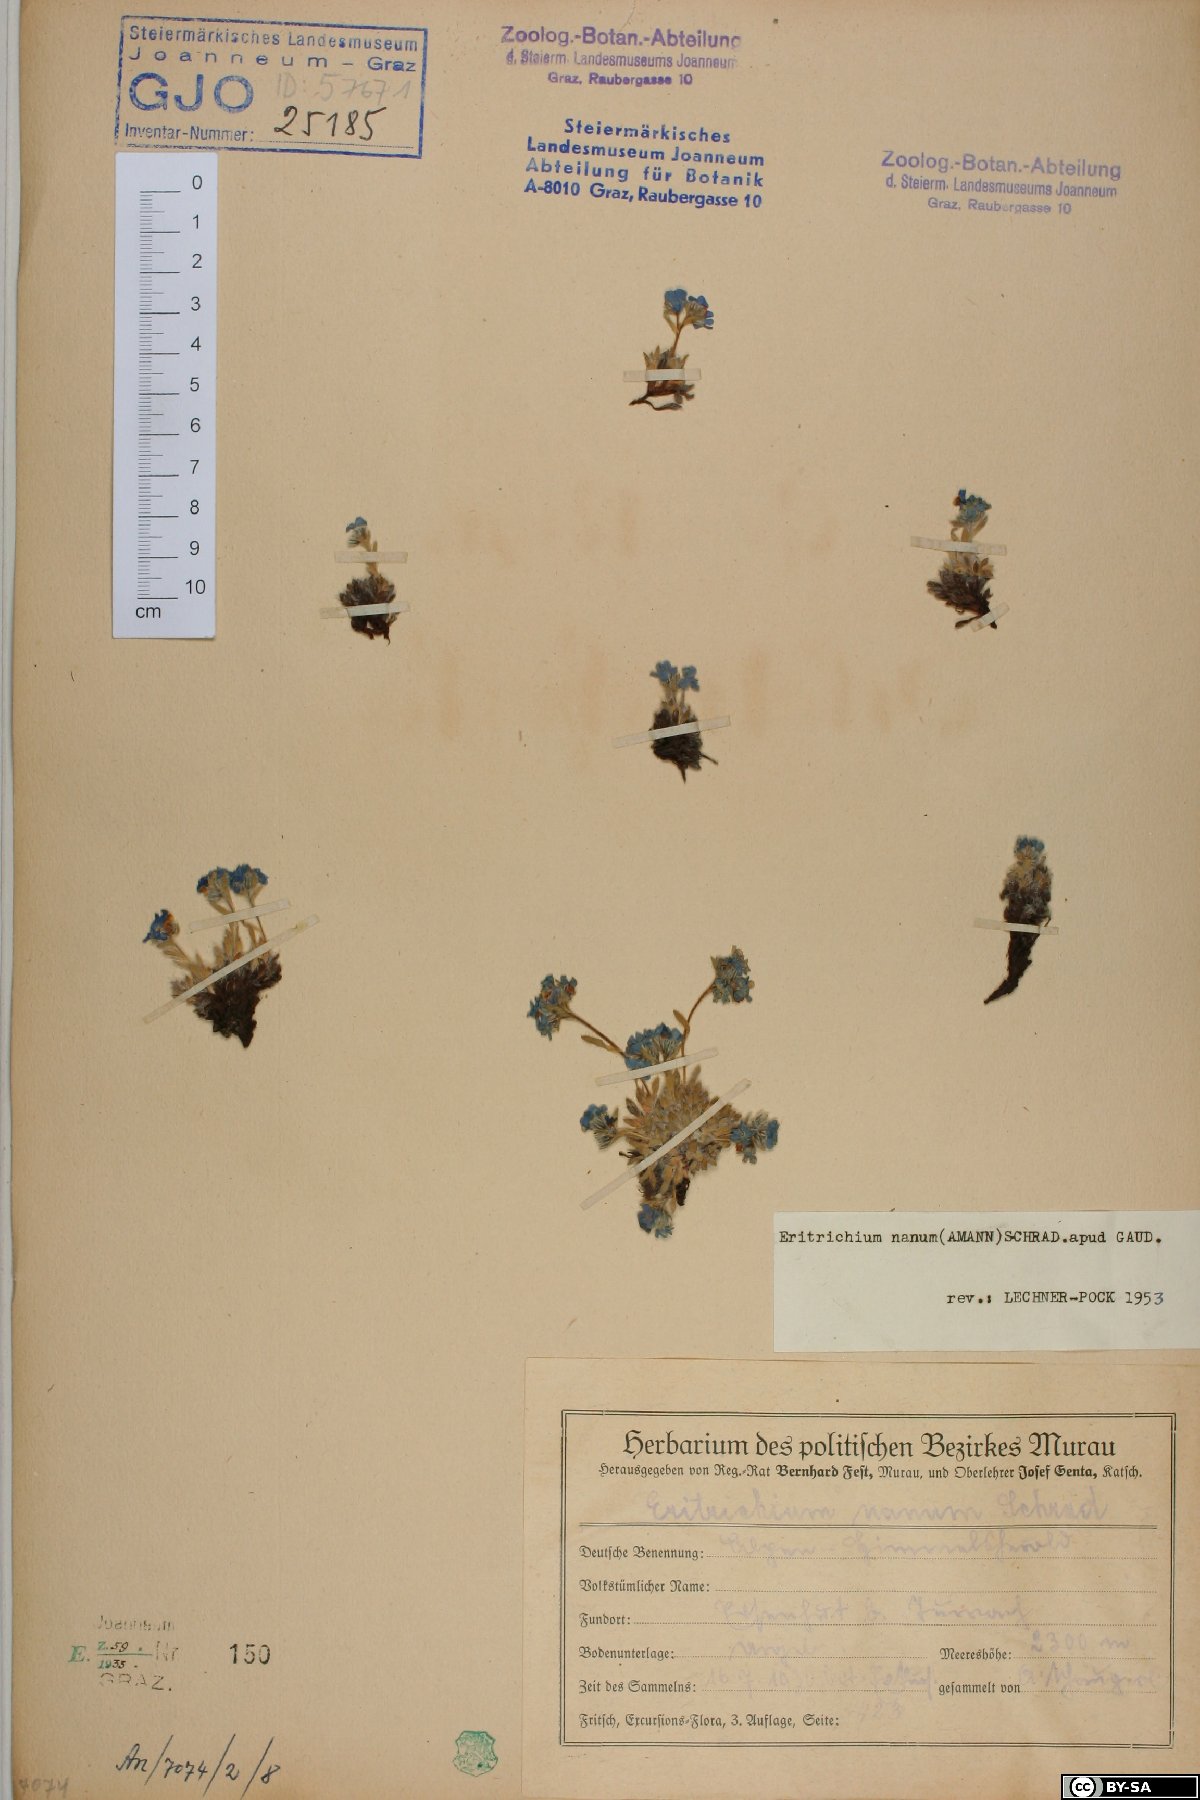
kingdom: Plantae
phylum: Tracheophyta
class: Magnoliopsida
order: Boraginales
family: Boraginaceae
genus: Eritrichium
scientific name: Eritrichium nanum
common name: King-of-the-alps
